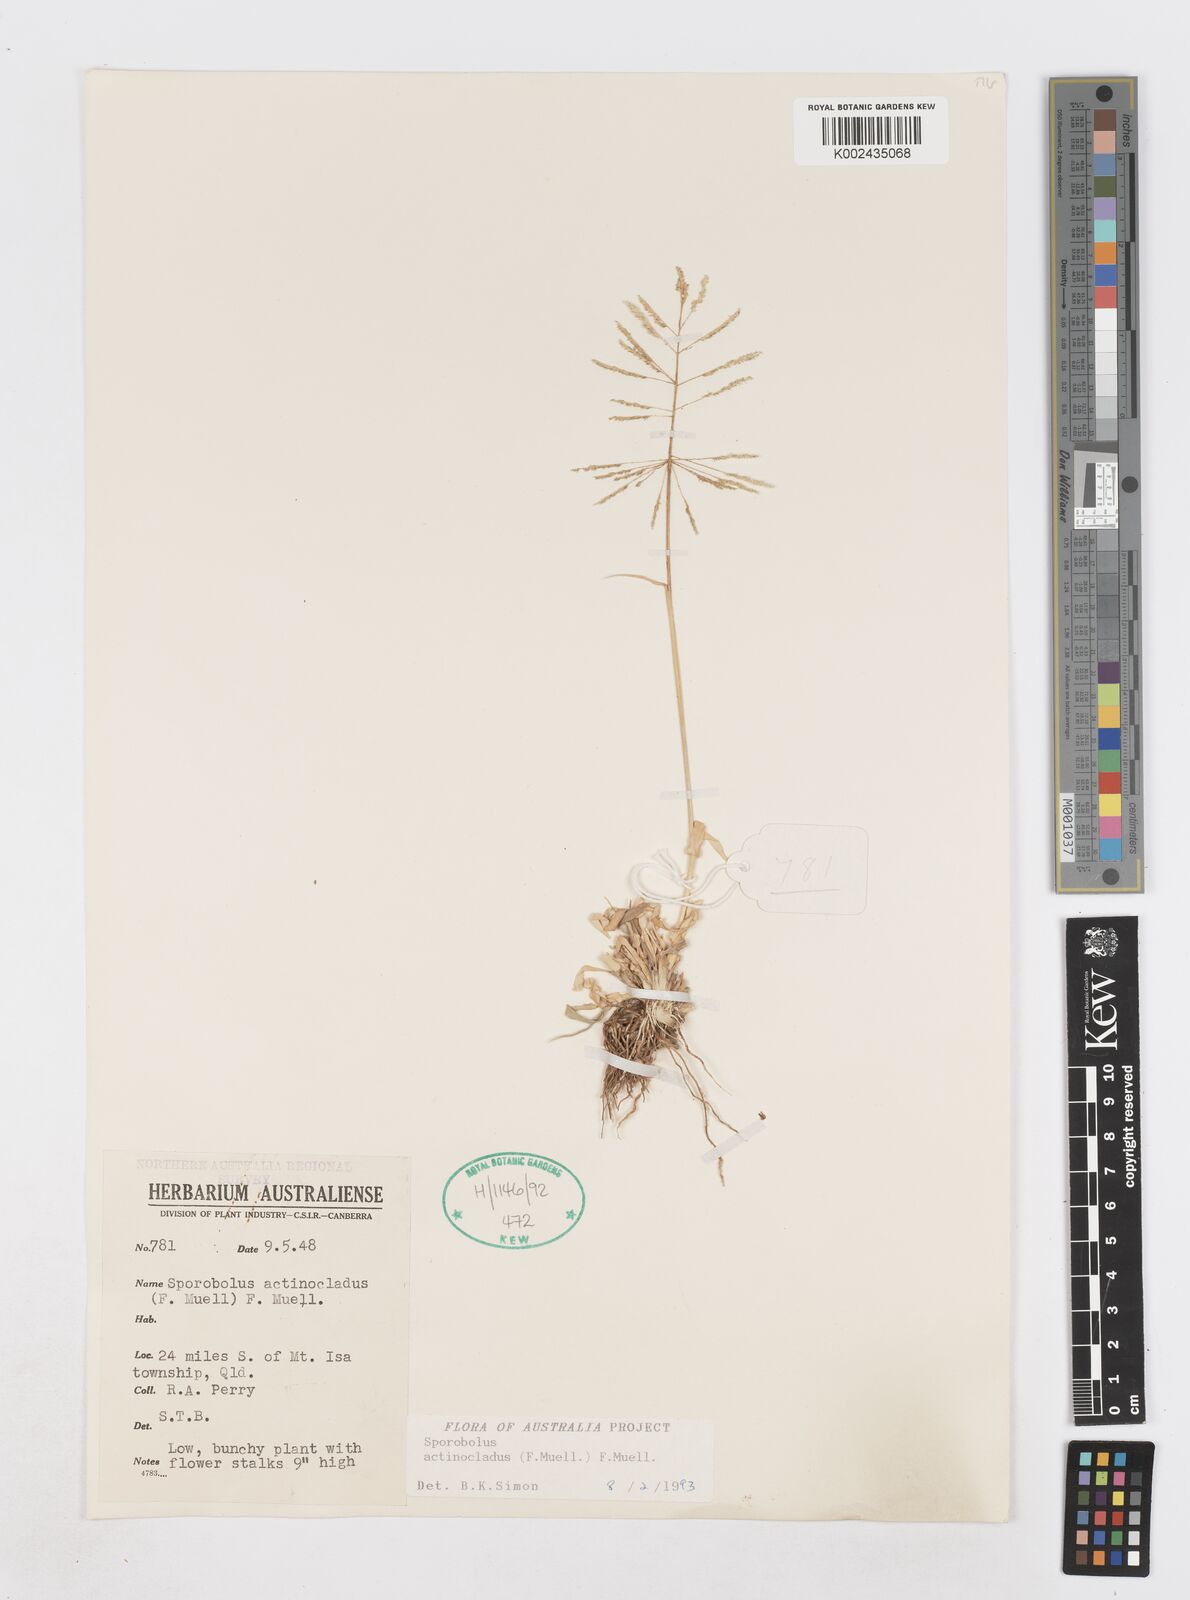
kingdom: Plantae
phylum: Tracheophyta
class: Liliopsida
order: Poales
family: Poaceae
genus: Sporobolus
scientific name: Sporobolus actinocladus
